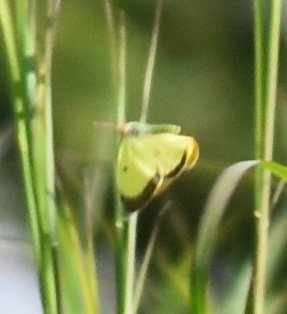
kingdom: Animalia
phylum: Arthropoda
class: Insecta
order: Lepidoptera
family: Pieridae
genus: Colias
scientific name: Colias philodice
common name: Clouded Sulphur
